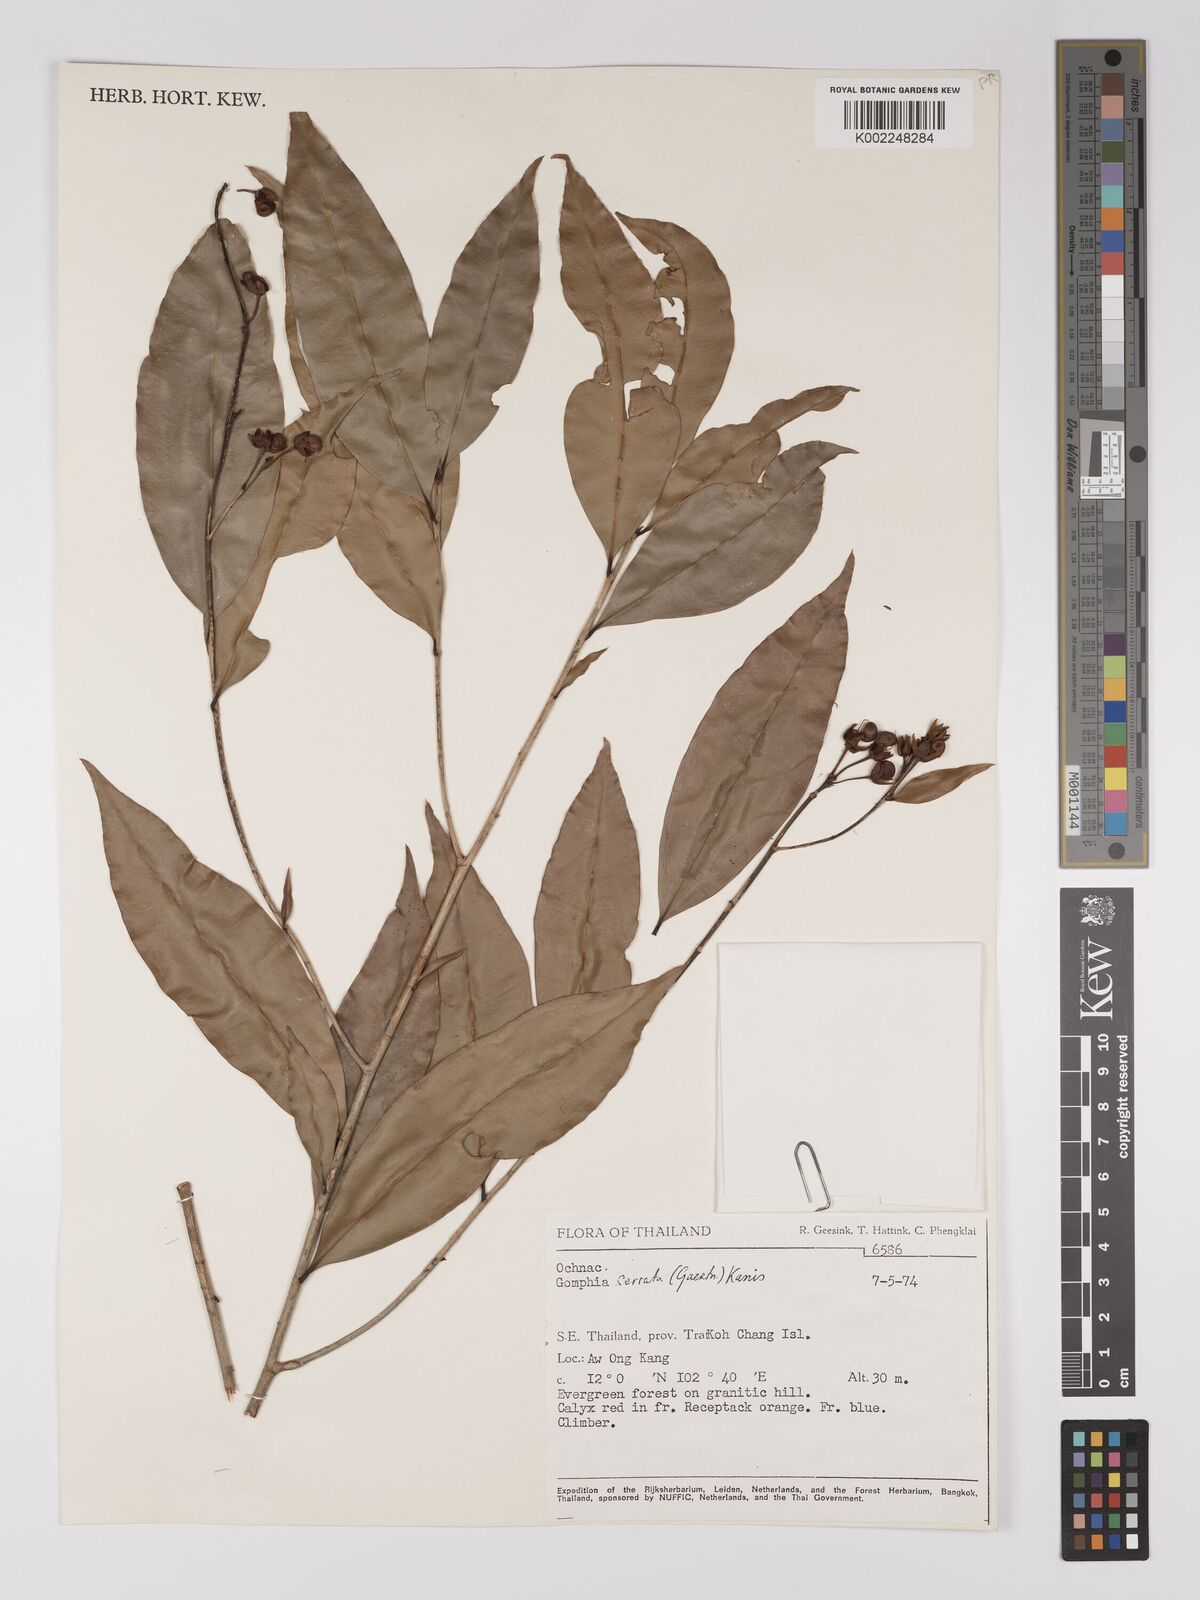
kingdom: Plantae
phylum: Tracheophyta
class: Magnoliopsida
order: Malpighiales
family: Ochnaceae
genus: Gomphia
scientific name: Gomphia serrata
